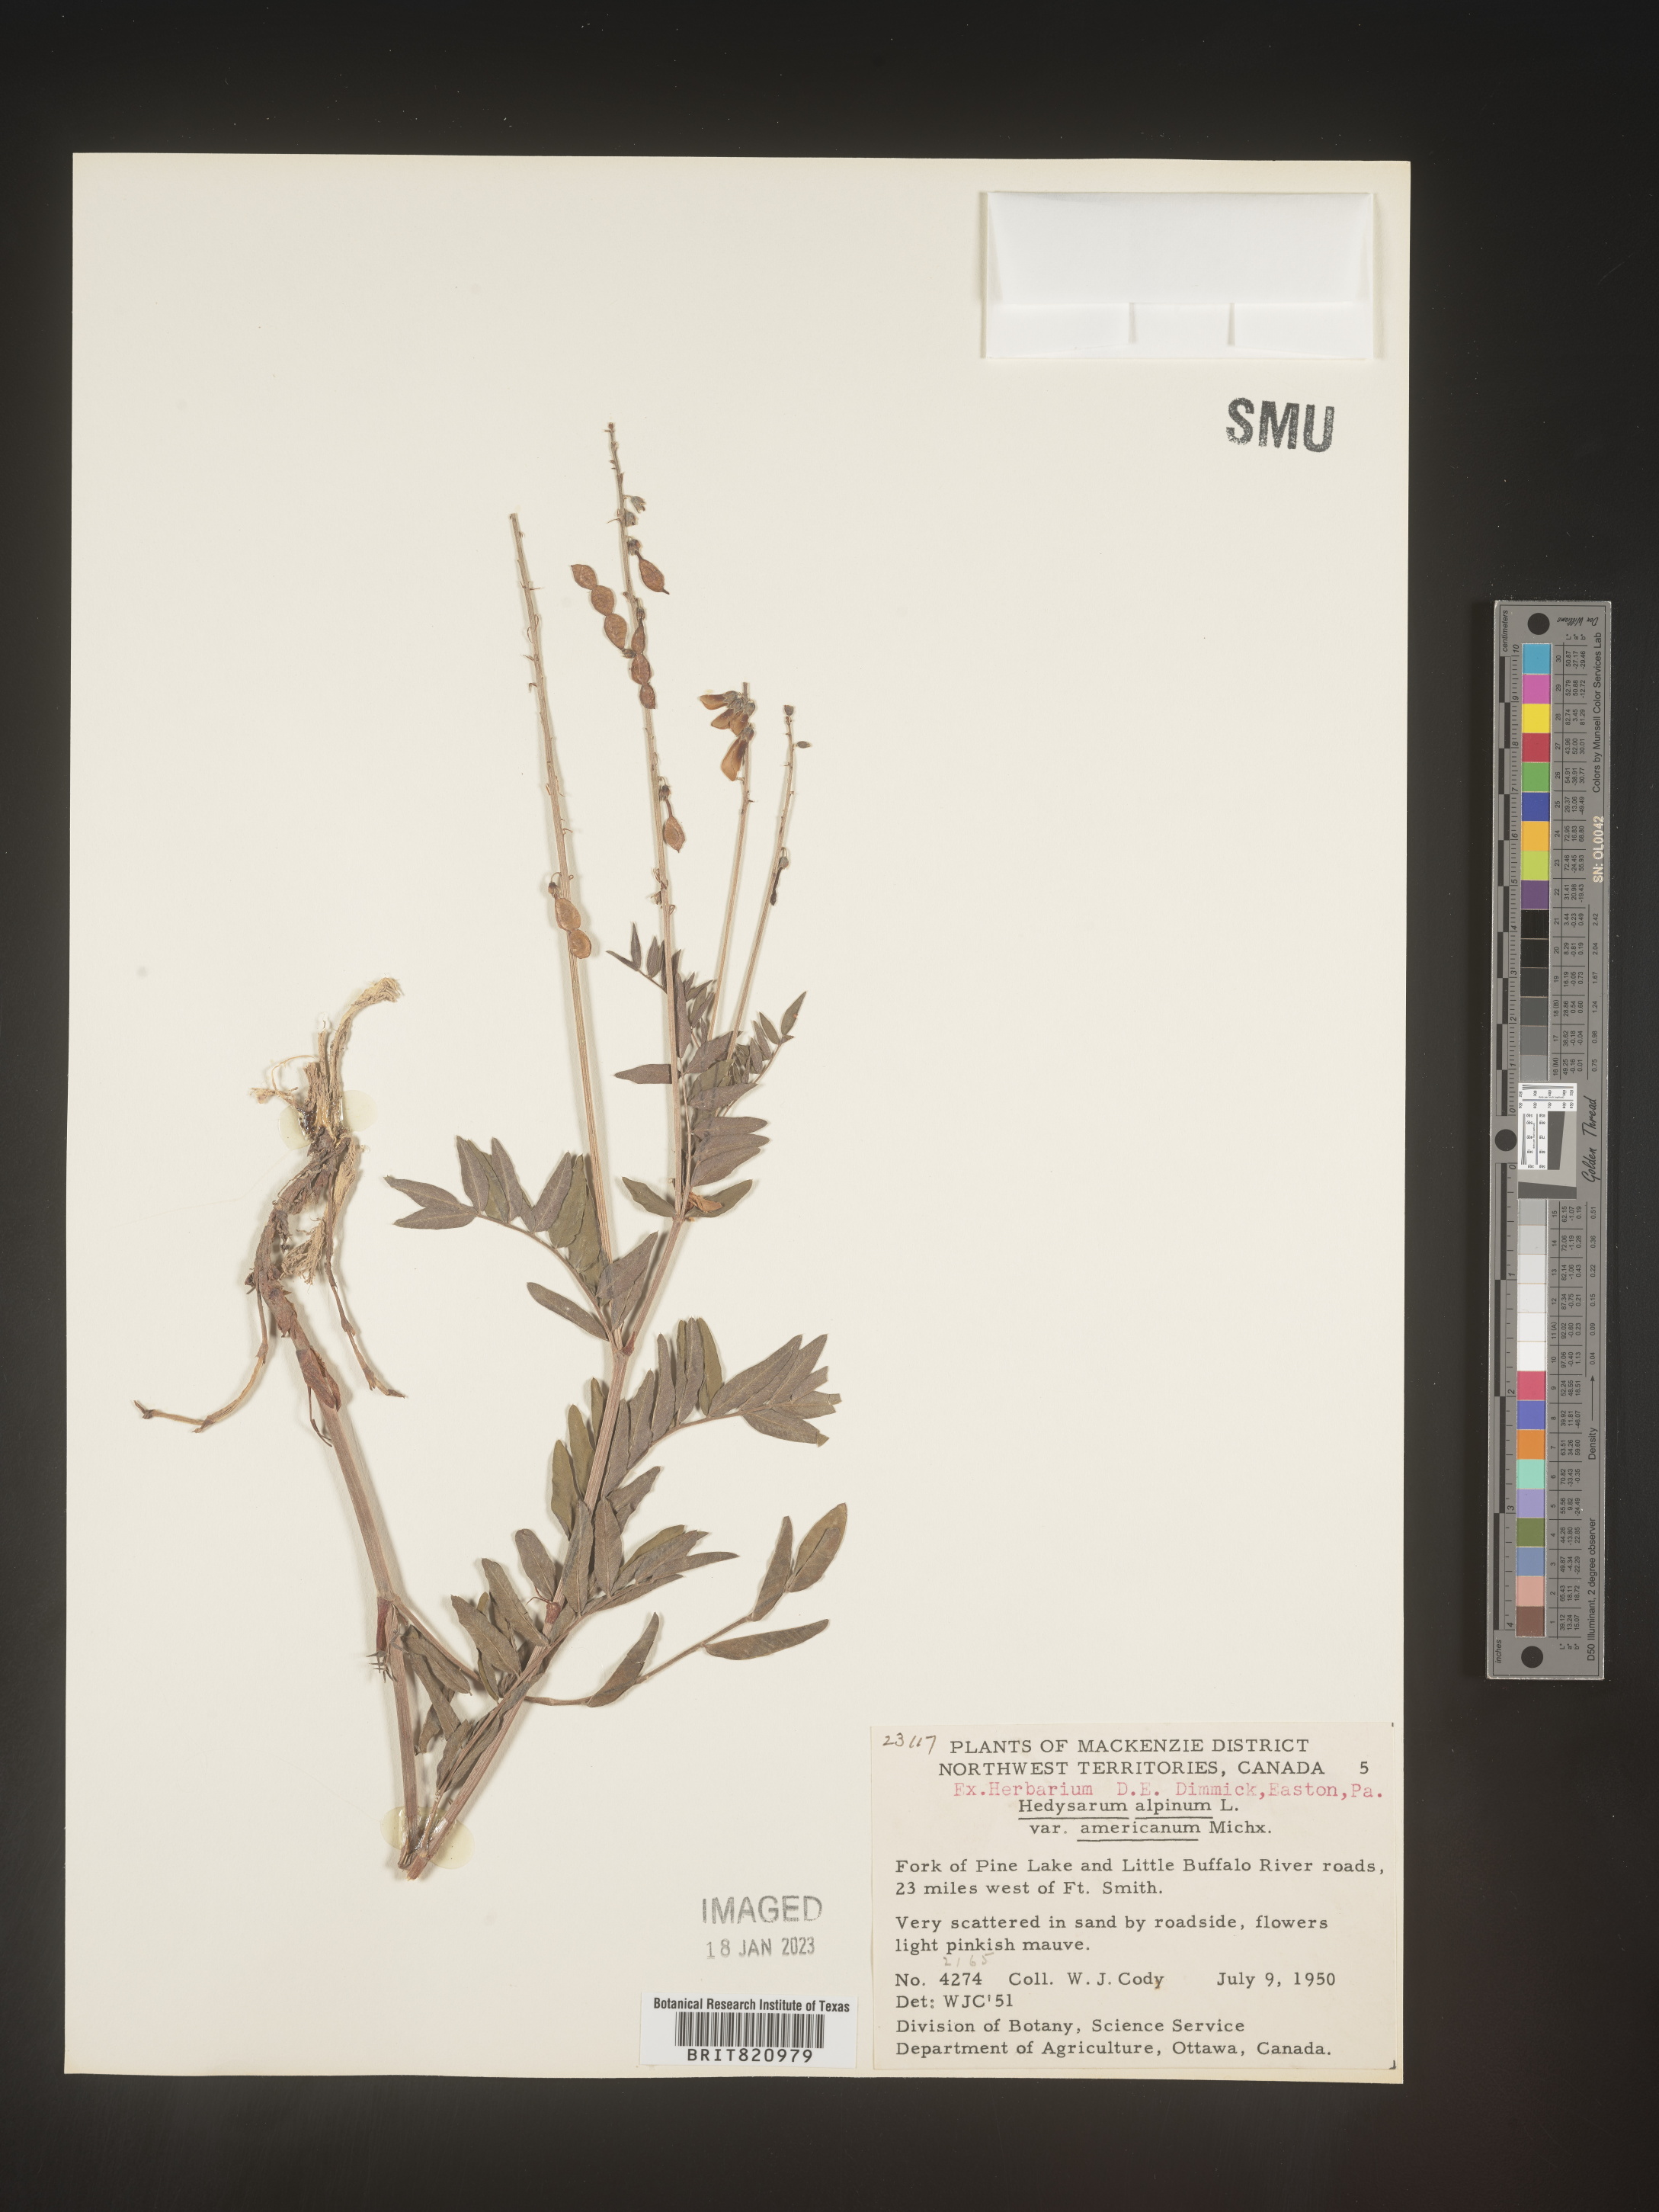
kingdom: Plantae
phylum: Tracheophyta
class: Magnoliopsida
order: Fabales
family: Fabaceae
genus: Hedysarum
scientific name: Hedysarum alpinum
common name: Alpine sweet-vetch
